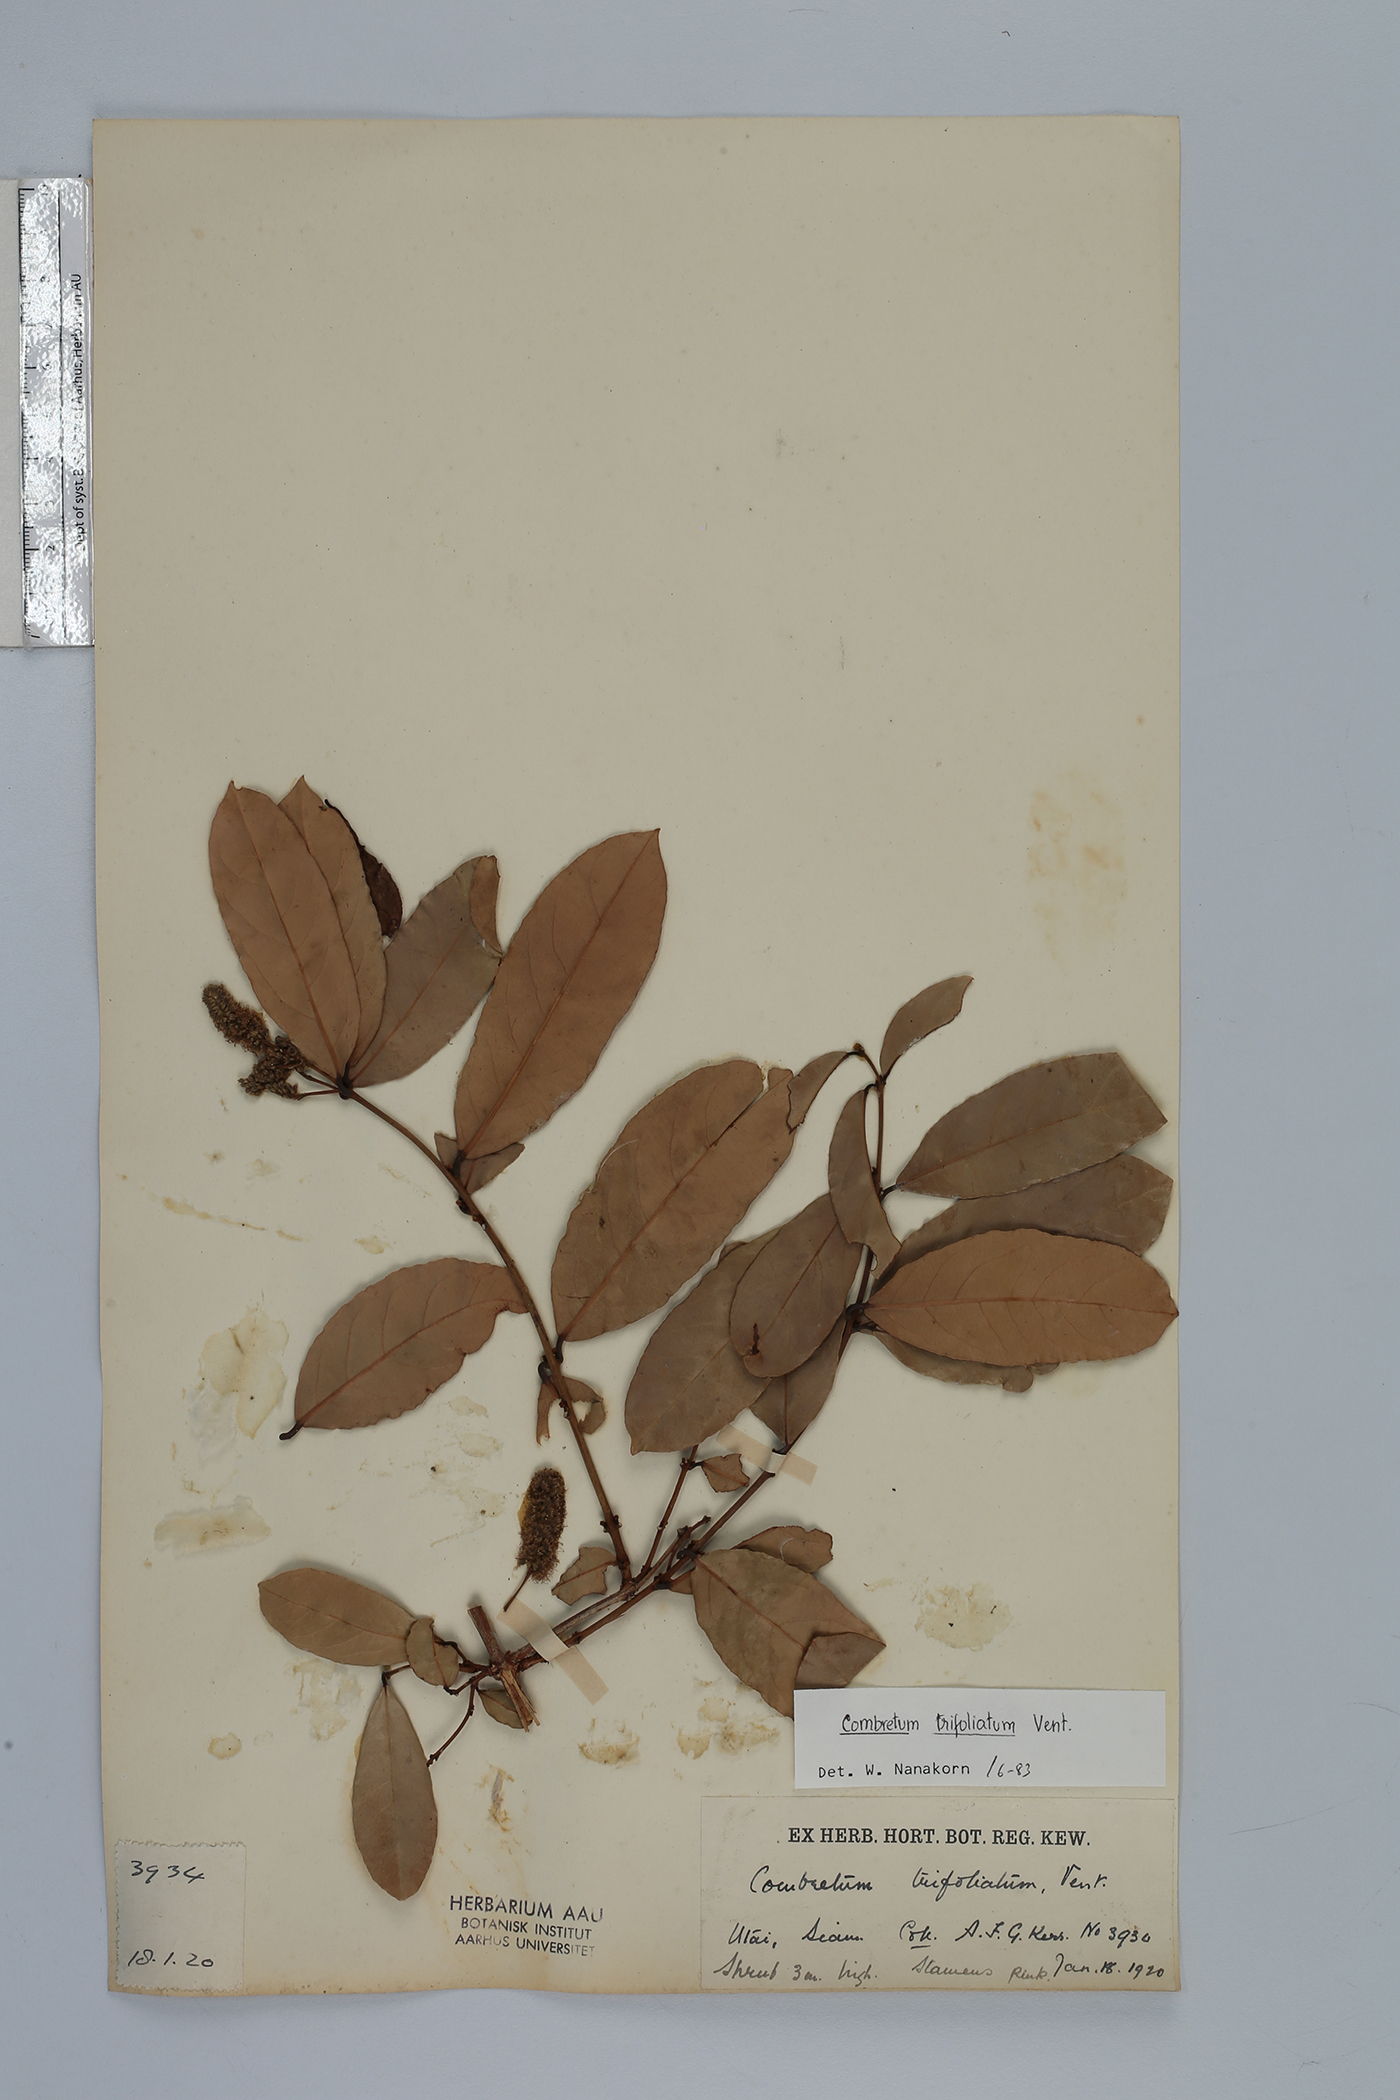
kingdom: Plantae
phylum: Tracheophyta
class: Magnoliopsida
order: Myrtales
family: Combretaceae
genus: Combretum
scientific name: Combretum trifoliatum
